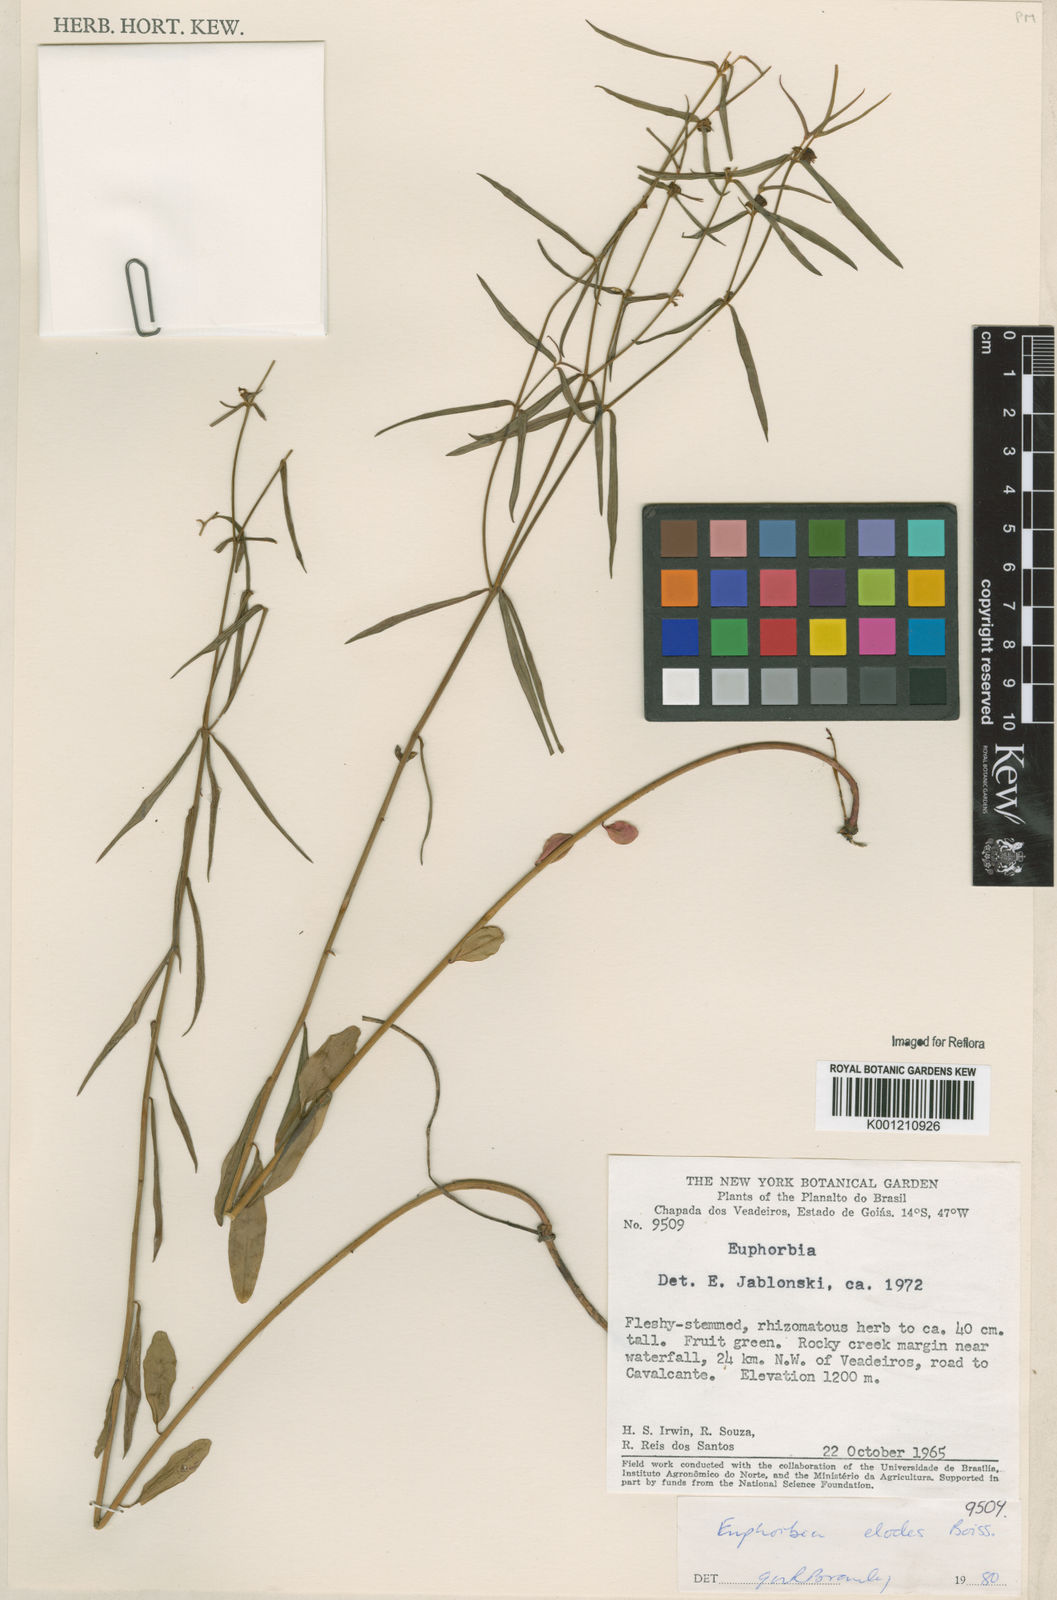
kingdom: Plantae
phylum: Tracheophyta
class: Magnoliopsida
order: Malpighiales
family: Euphorbiaceae
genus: Euphorbia
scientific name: Euphorbia elodes
